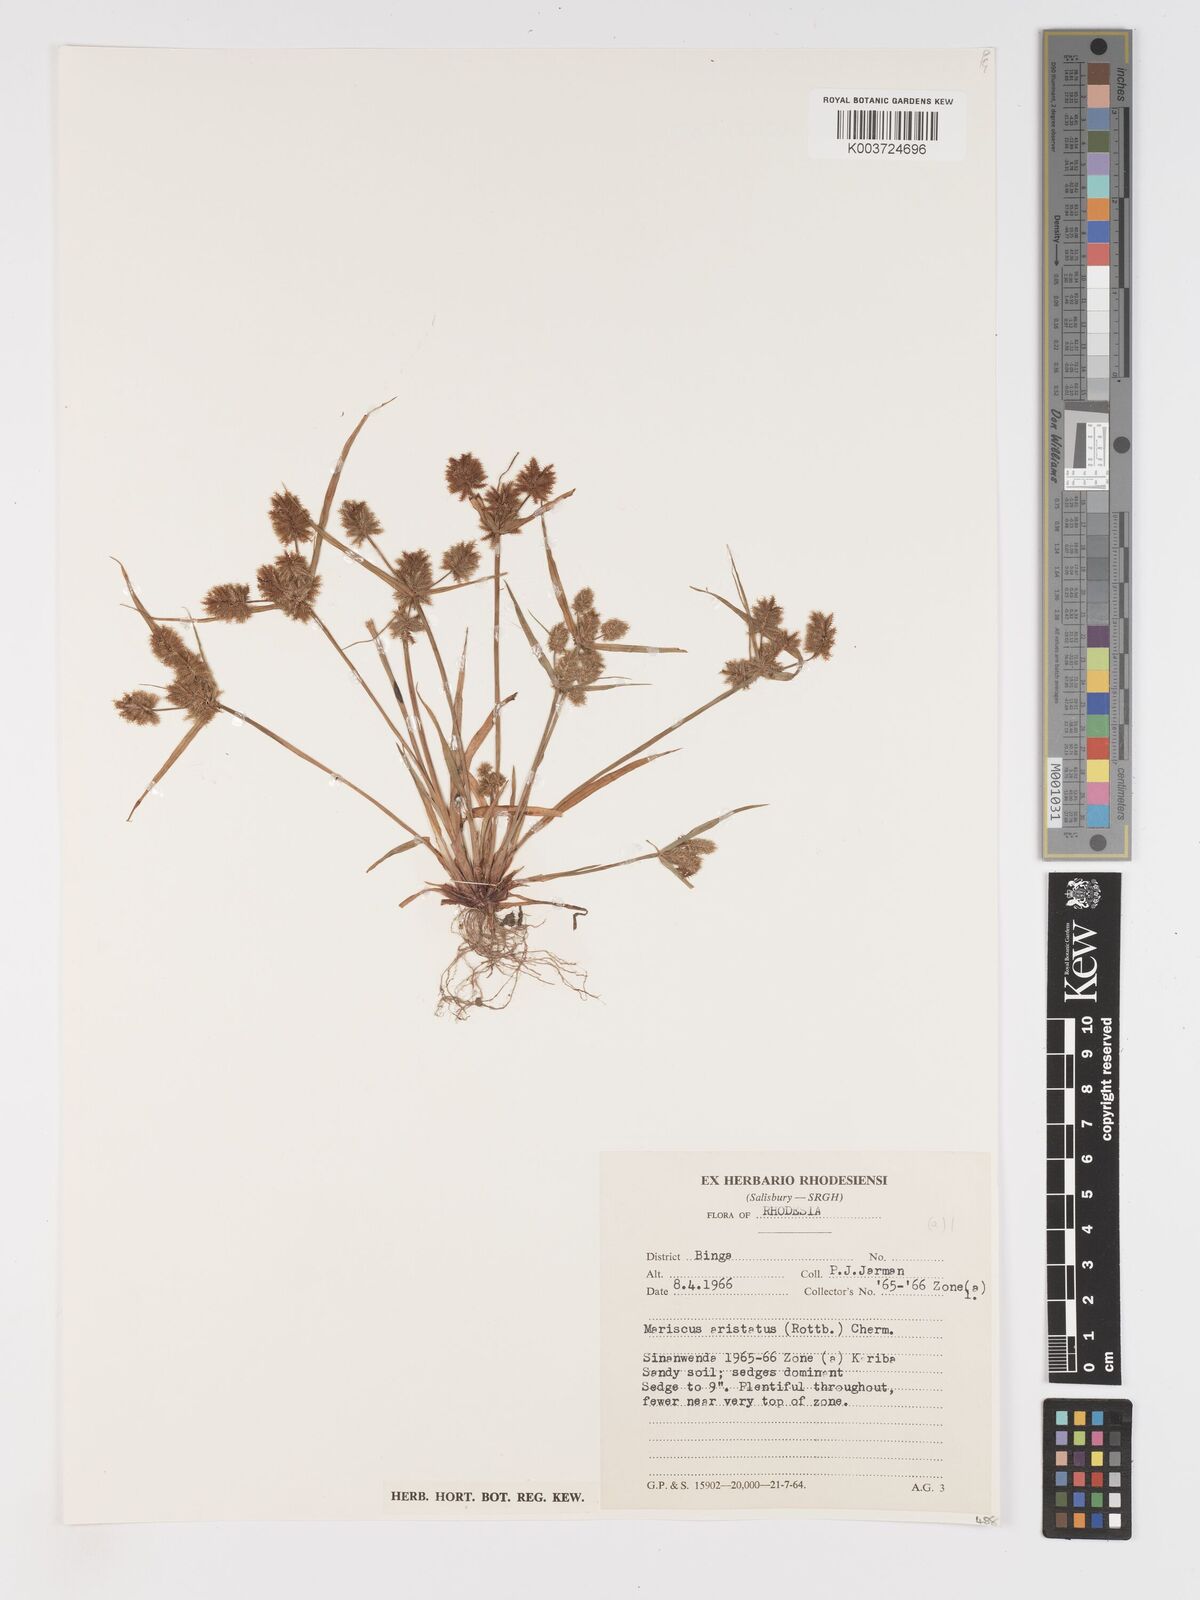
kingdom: Plantae
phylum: Tracheophyta
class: Liliopsida
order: Poales
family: Cyperaceae
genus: Cyperus
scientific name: Cyperus squarrosus
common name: Awned cyperus
